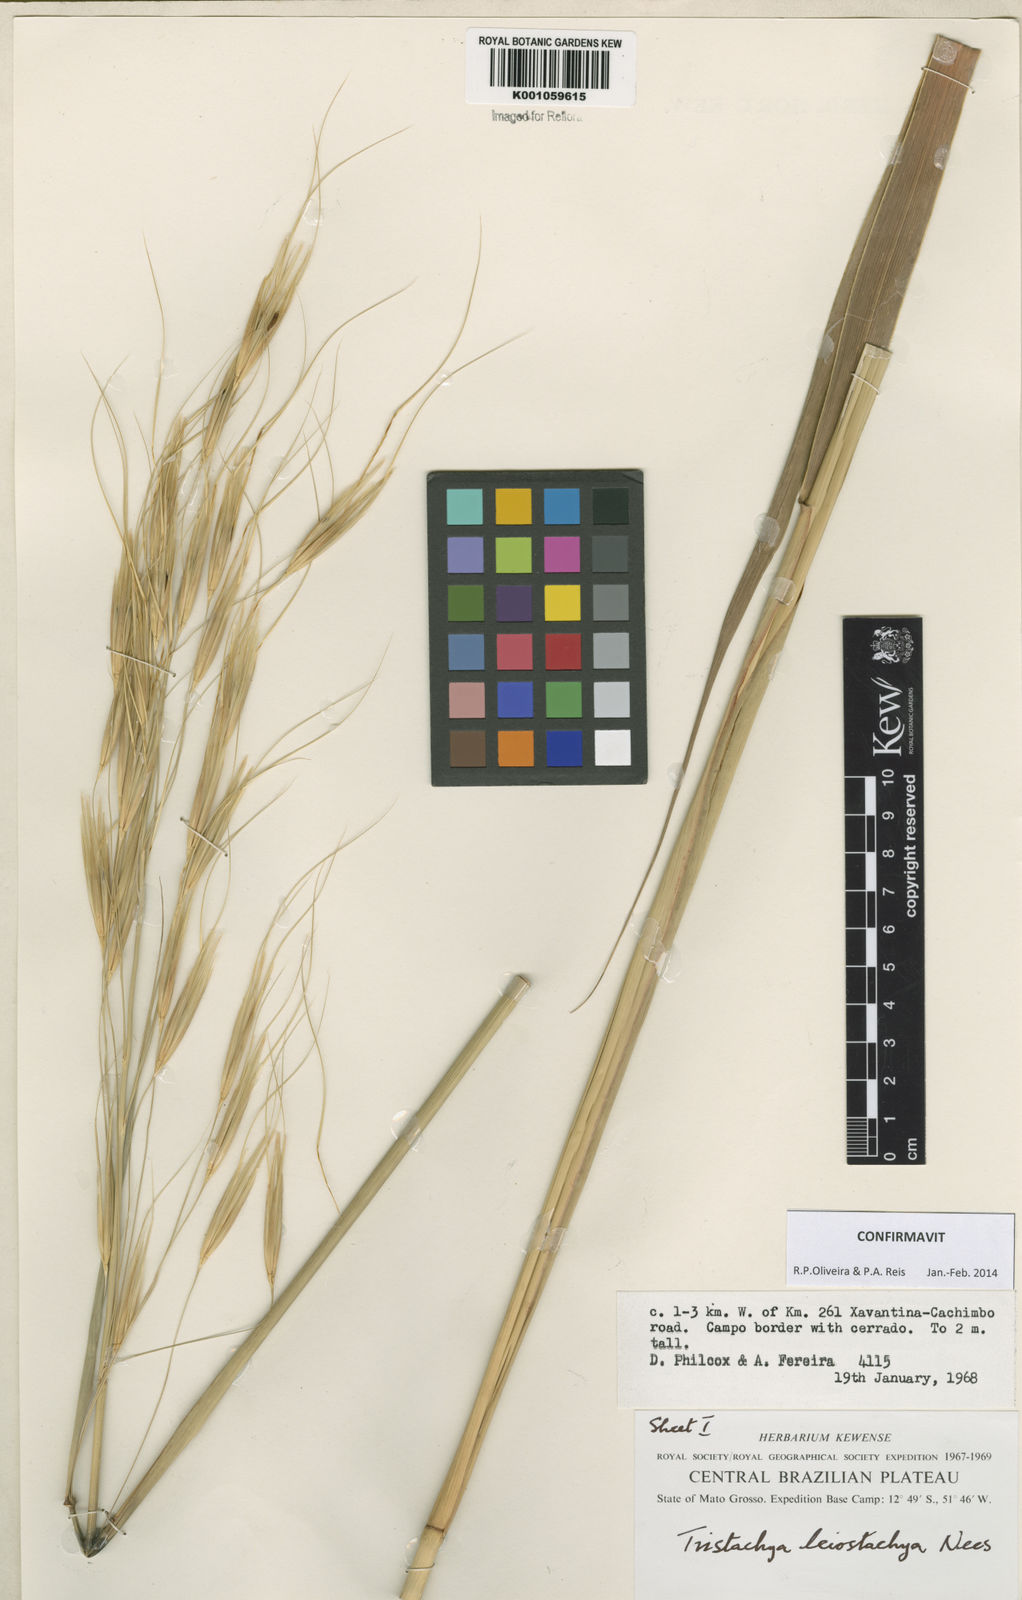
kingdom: Plantae
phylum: Tracheophyta
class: Liliopsida
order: Poales
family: Poaceae
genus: Tristachya
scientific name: Tristachya leiostachya
